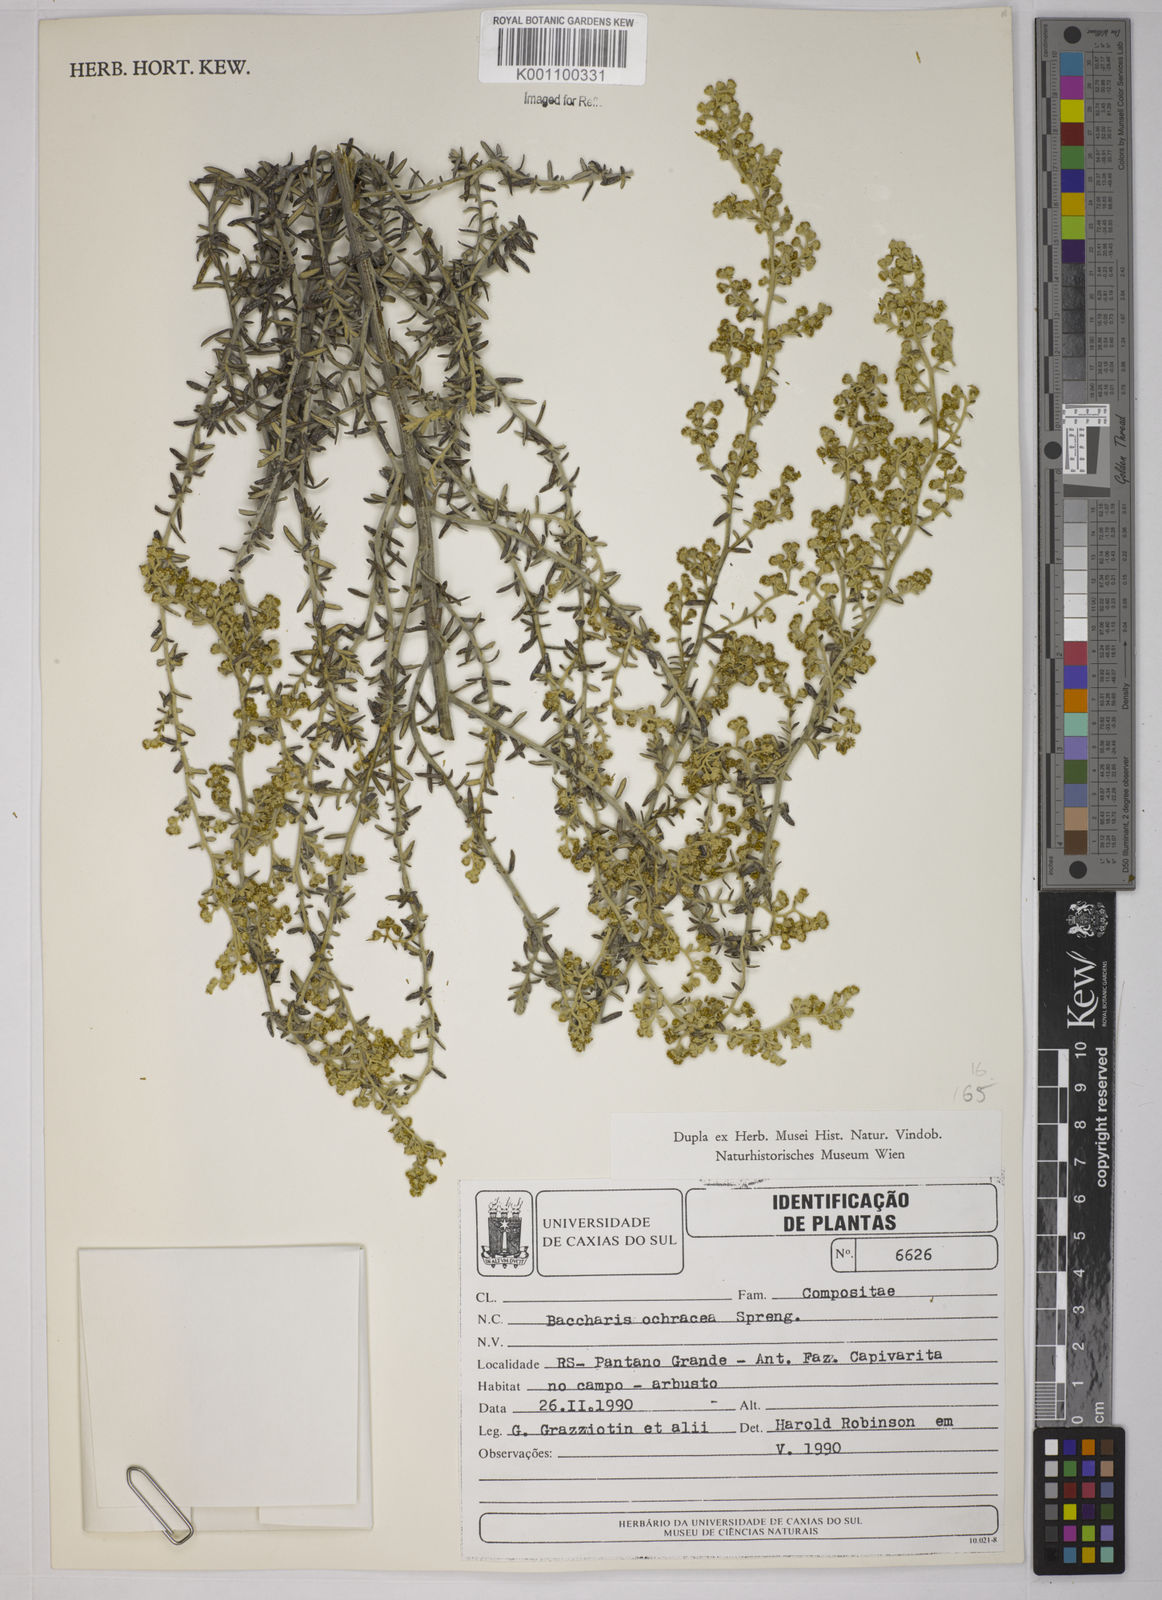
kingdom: Plantae
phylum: Tracheophyta
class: Magnoliopsida
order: Asterales
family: Asteraceae
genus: Baccharis
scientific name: Baccharis ochracea
